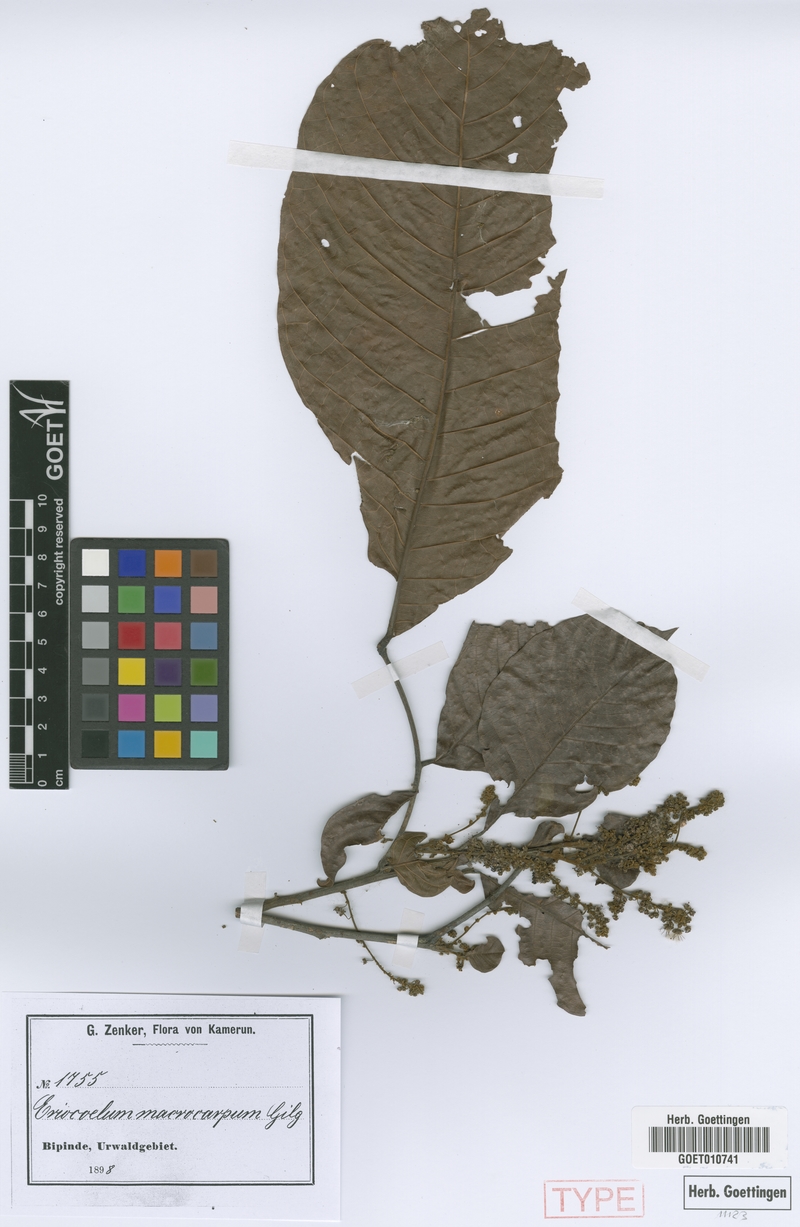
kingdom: Plantae
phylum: Tracheophyta
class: Magnoliopsida
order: Sapindales
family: Sapindaceae
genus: Eriocoelum
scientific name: Eriocoelum macrocarpum
